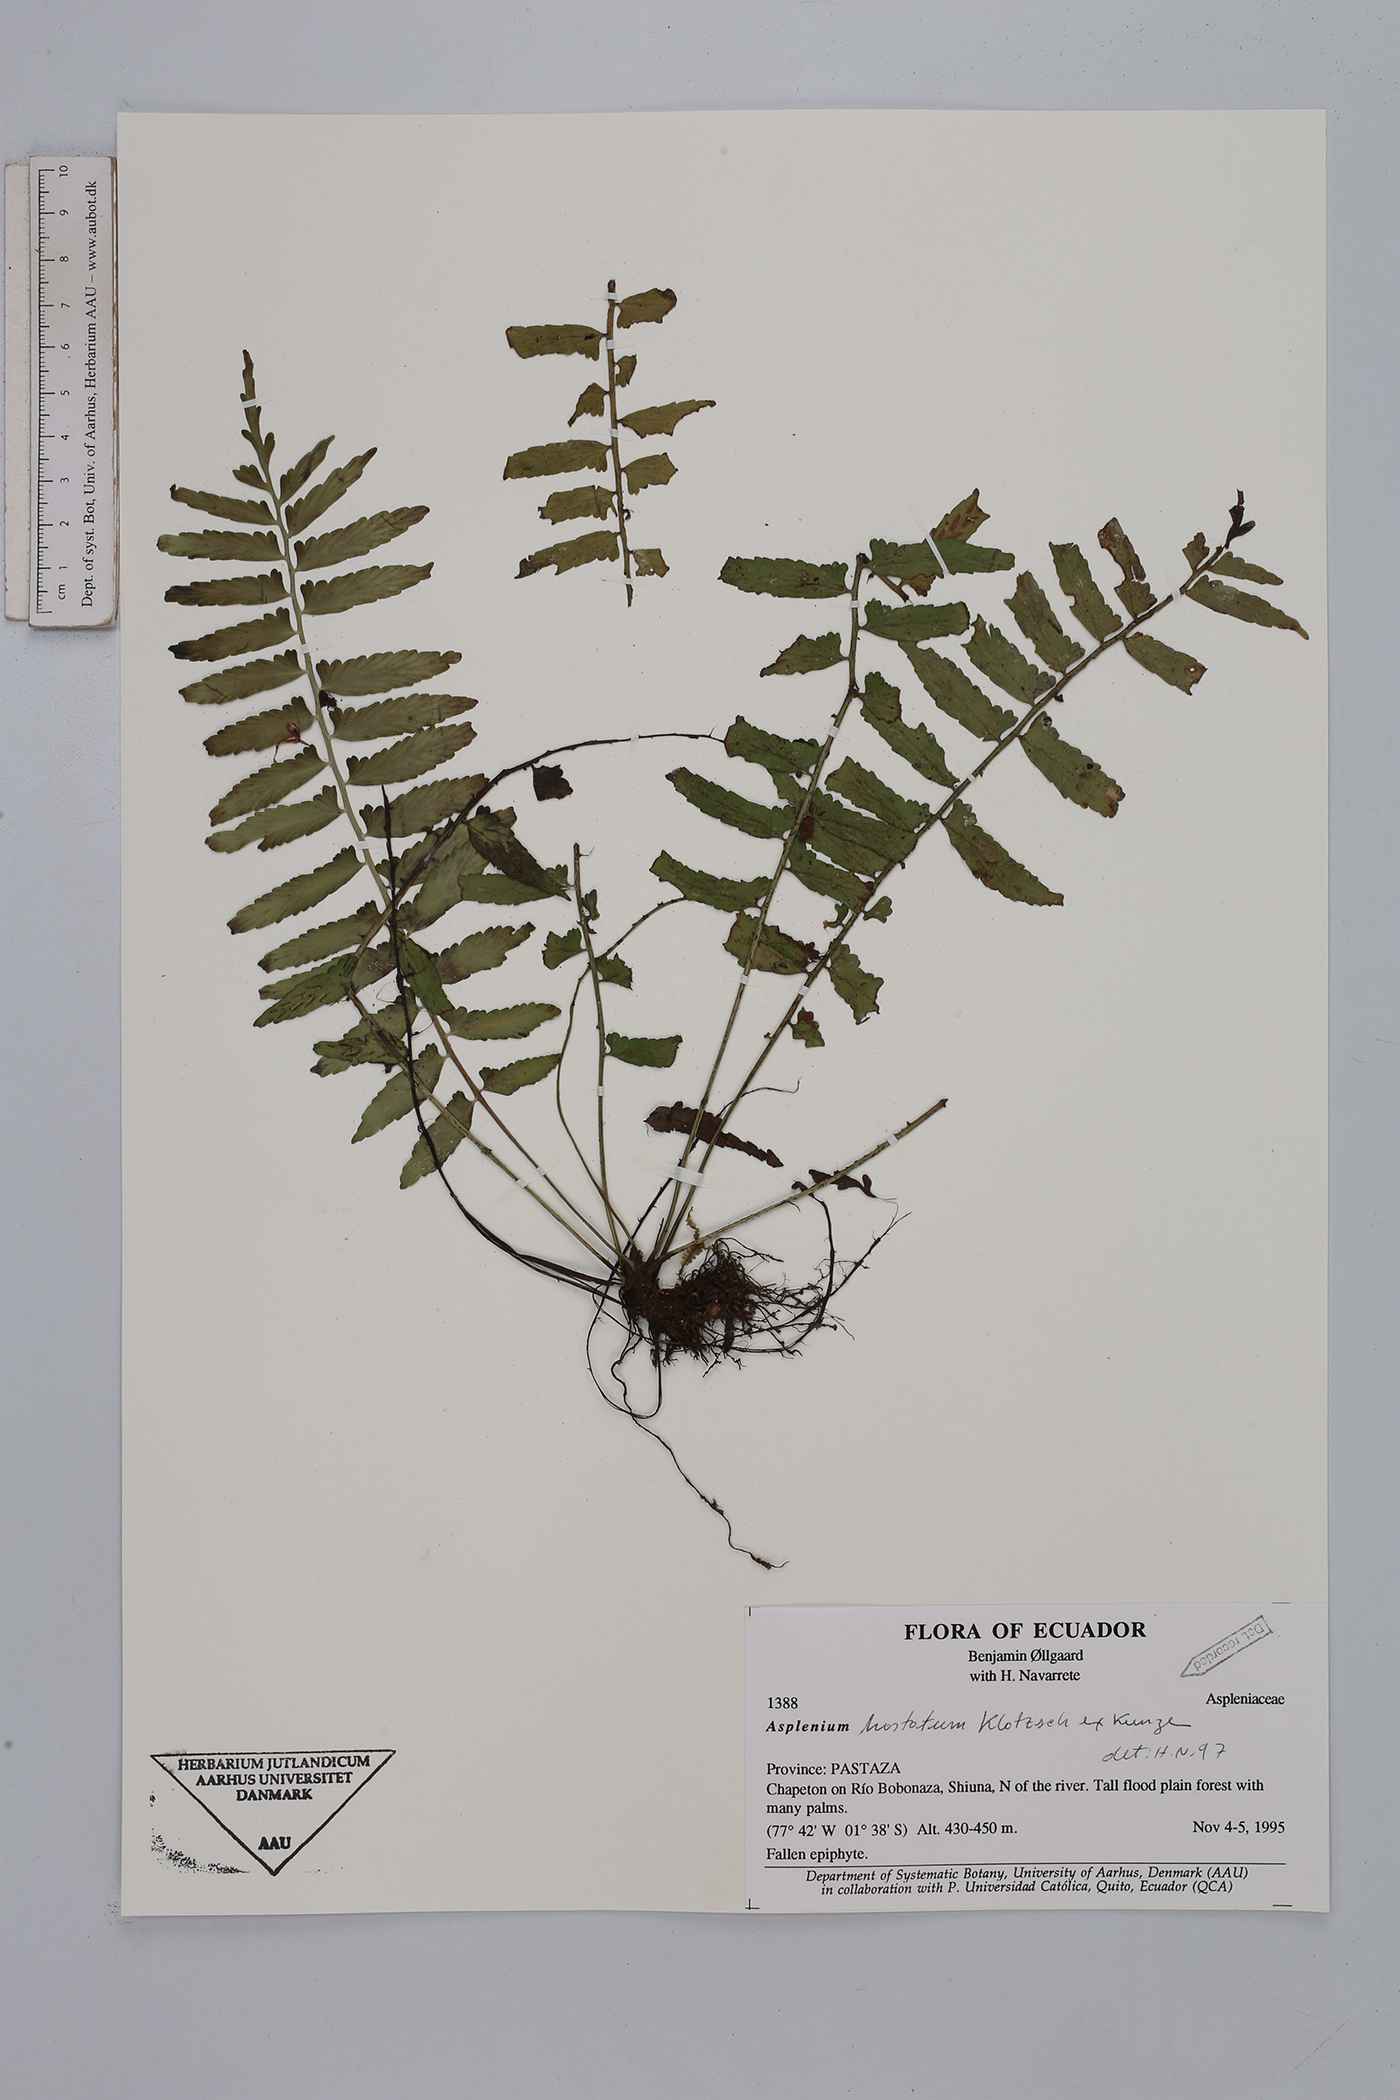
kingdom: Plantae
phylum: Tracheophyta
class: Polypodiopsida
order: Polypodiales
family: Aspleniaceae
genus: Asplenium
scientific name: Asplenium hastatum
